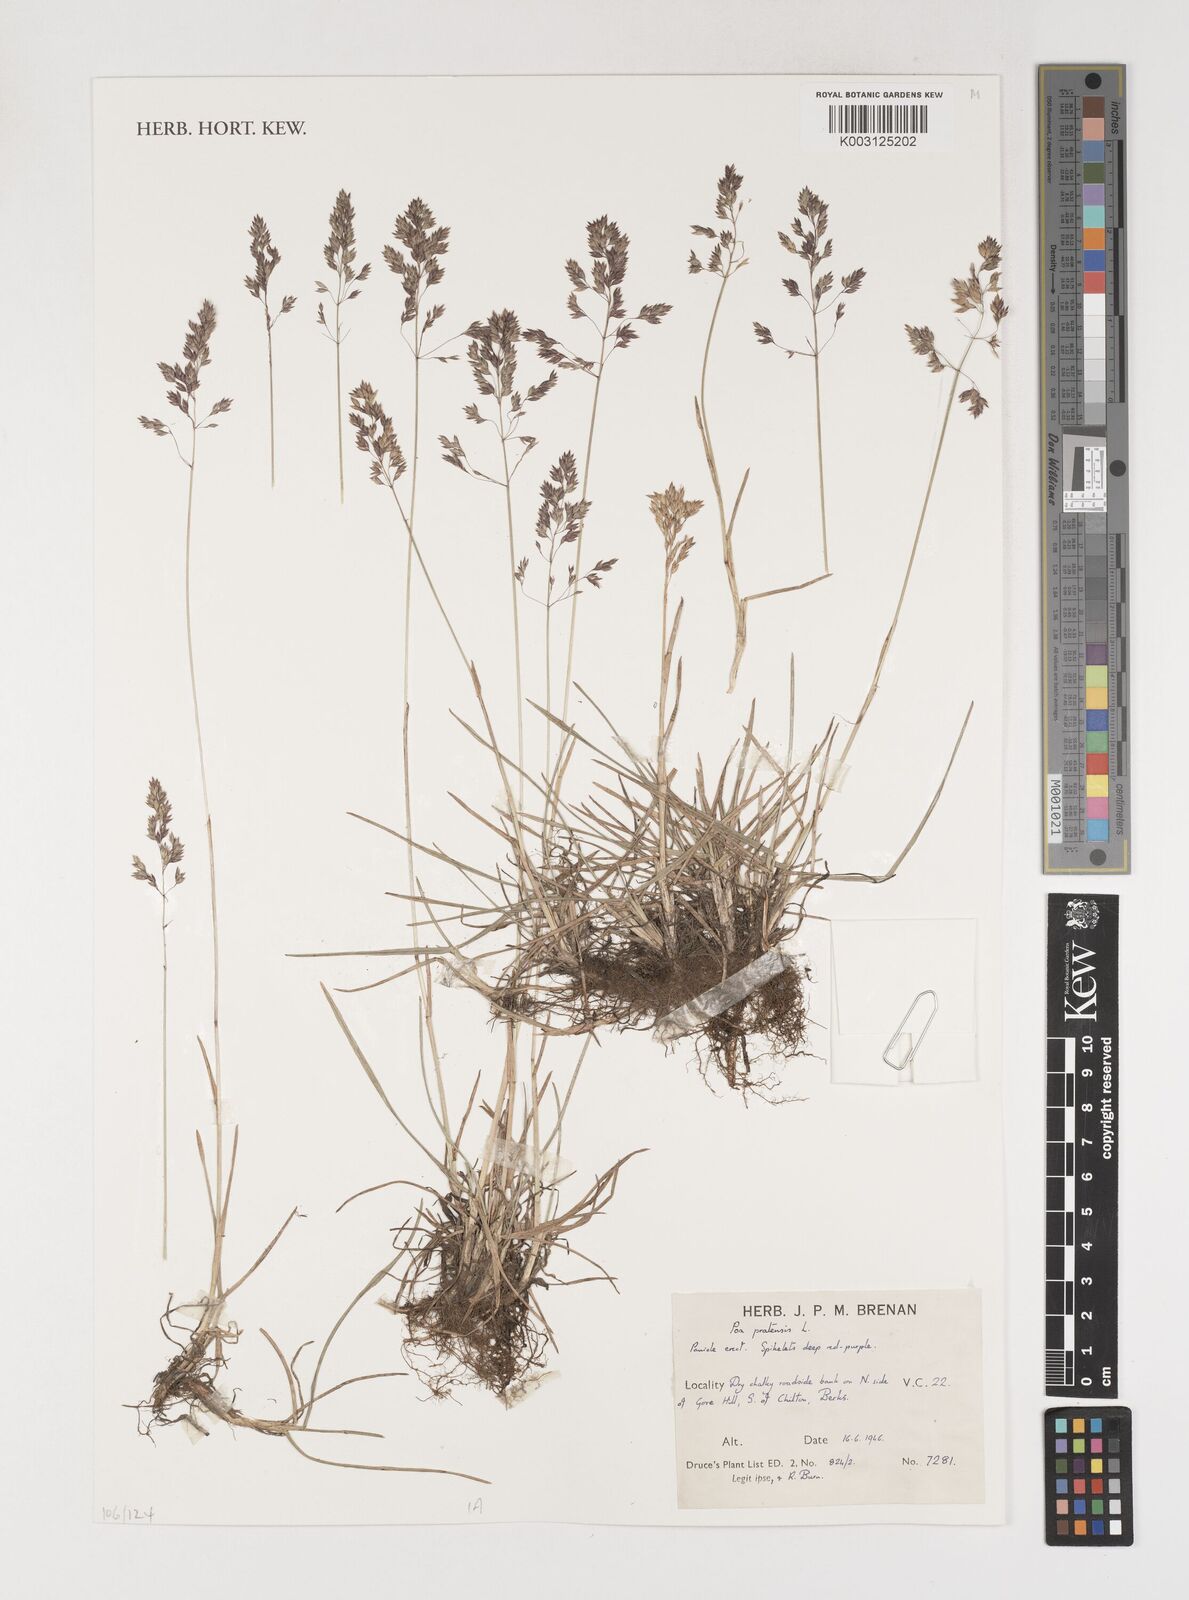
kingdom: Plantae
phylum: Tracheophyta
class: Liliopsida
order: Poales
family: Poaceae
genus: Poa
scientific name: Poa pratensis
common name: Kentucky bluegrass
